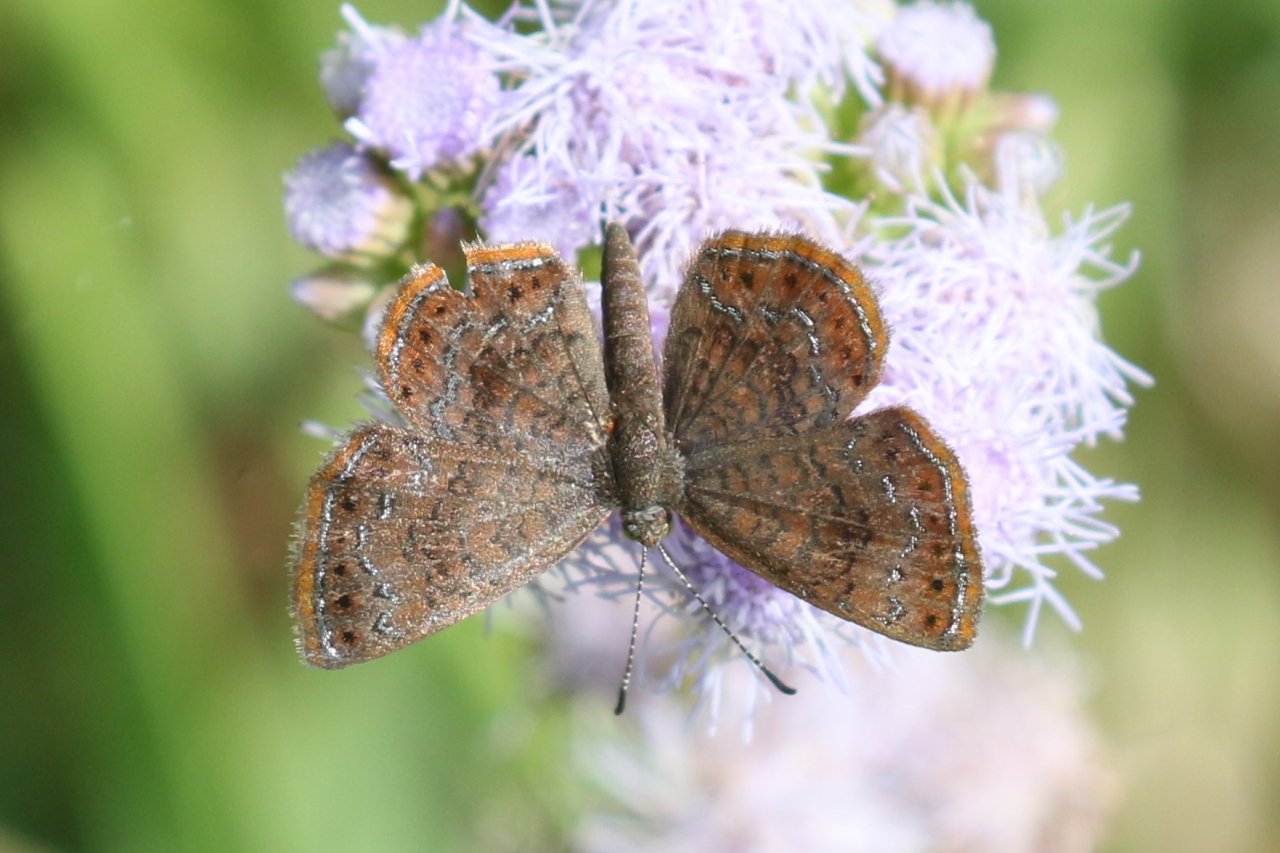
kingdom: Animalia
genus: Calephelis
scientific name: Calephelis perditalis
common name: Rounded Metalmark
